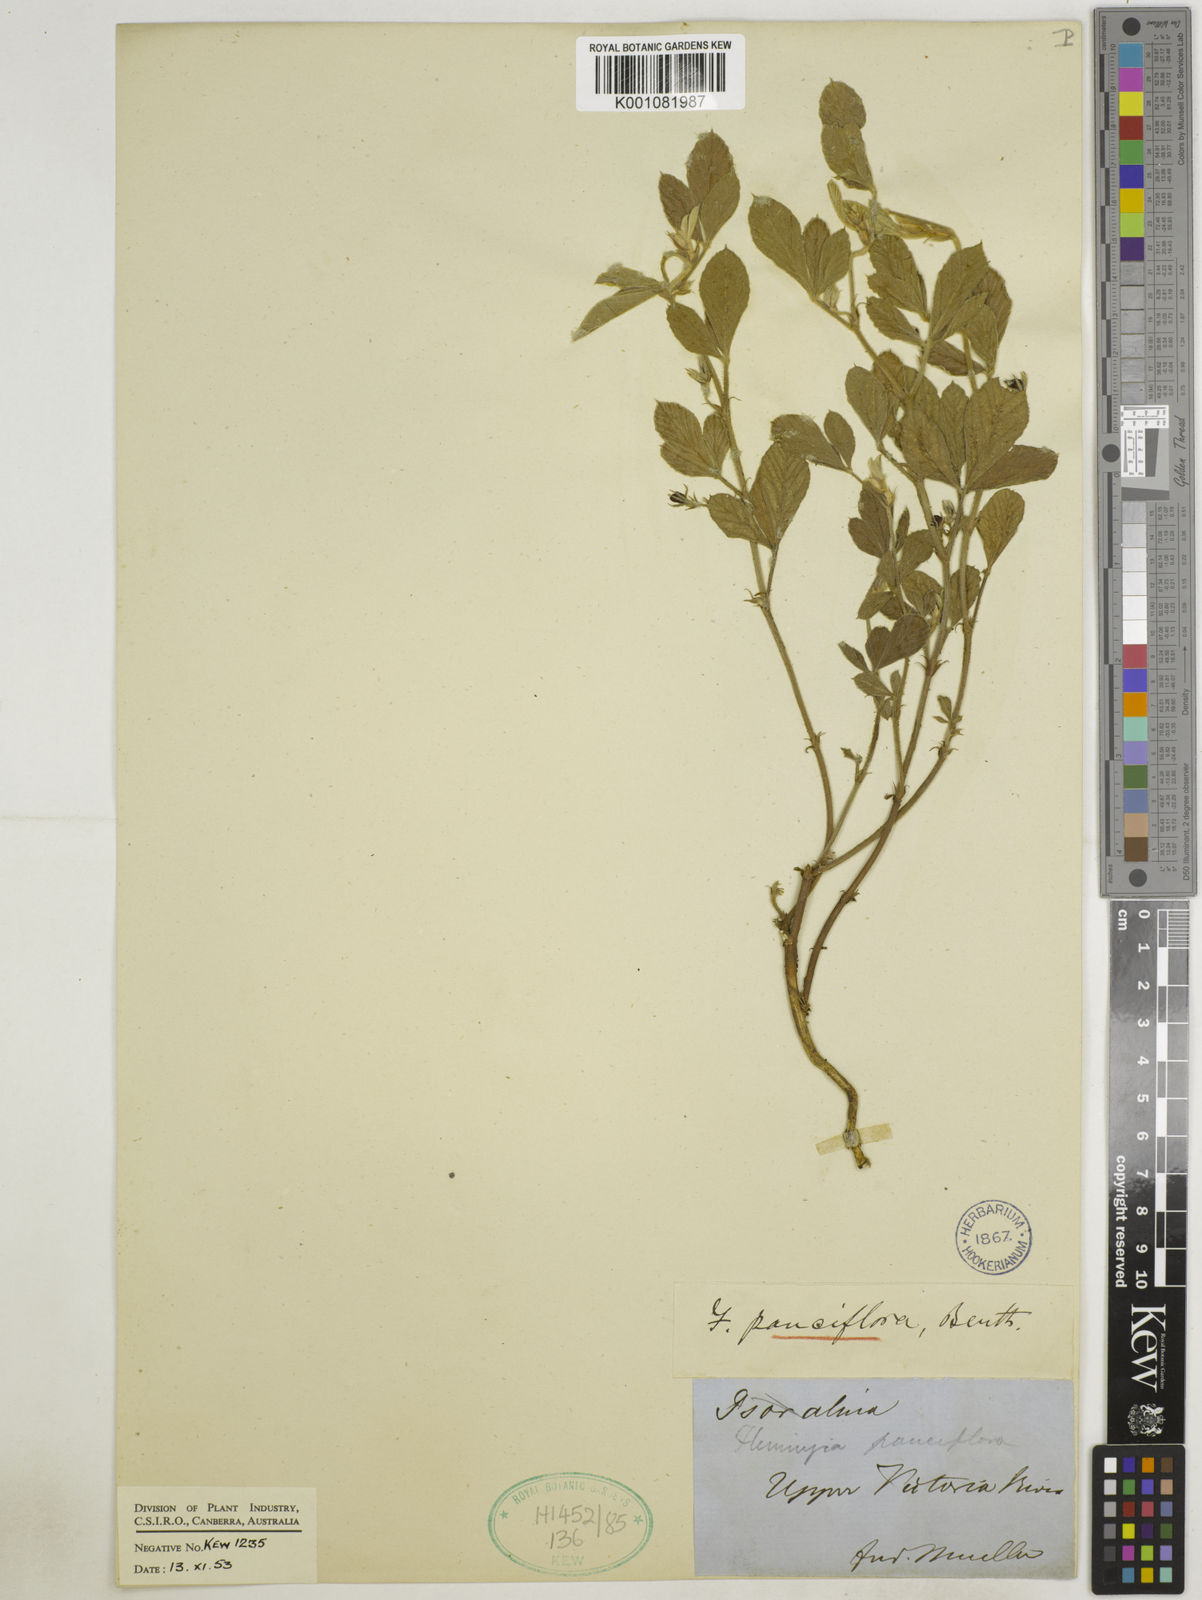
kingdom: Plantae
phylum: Tracheophyta
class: Magnoliopsida
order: Fabales
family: Fabaceae
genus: Flemingia
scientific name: Flemingia pauciflora
